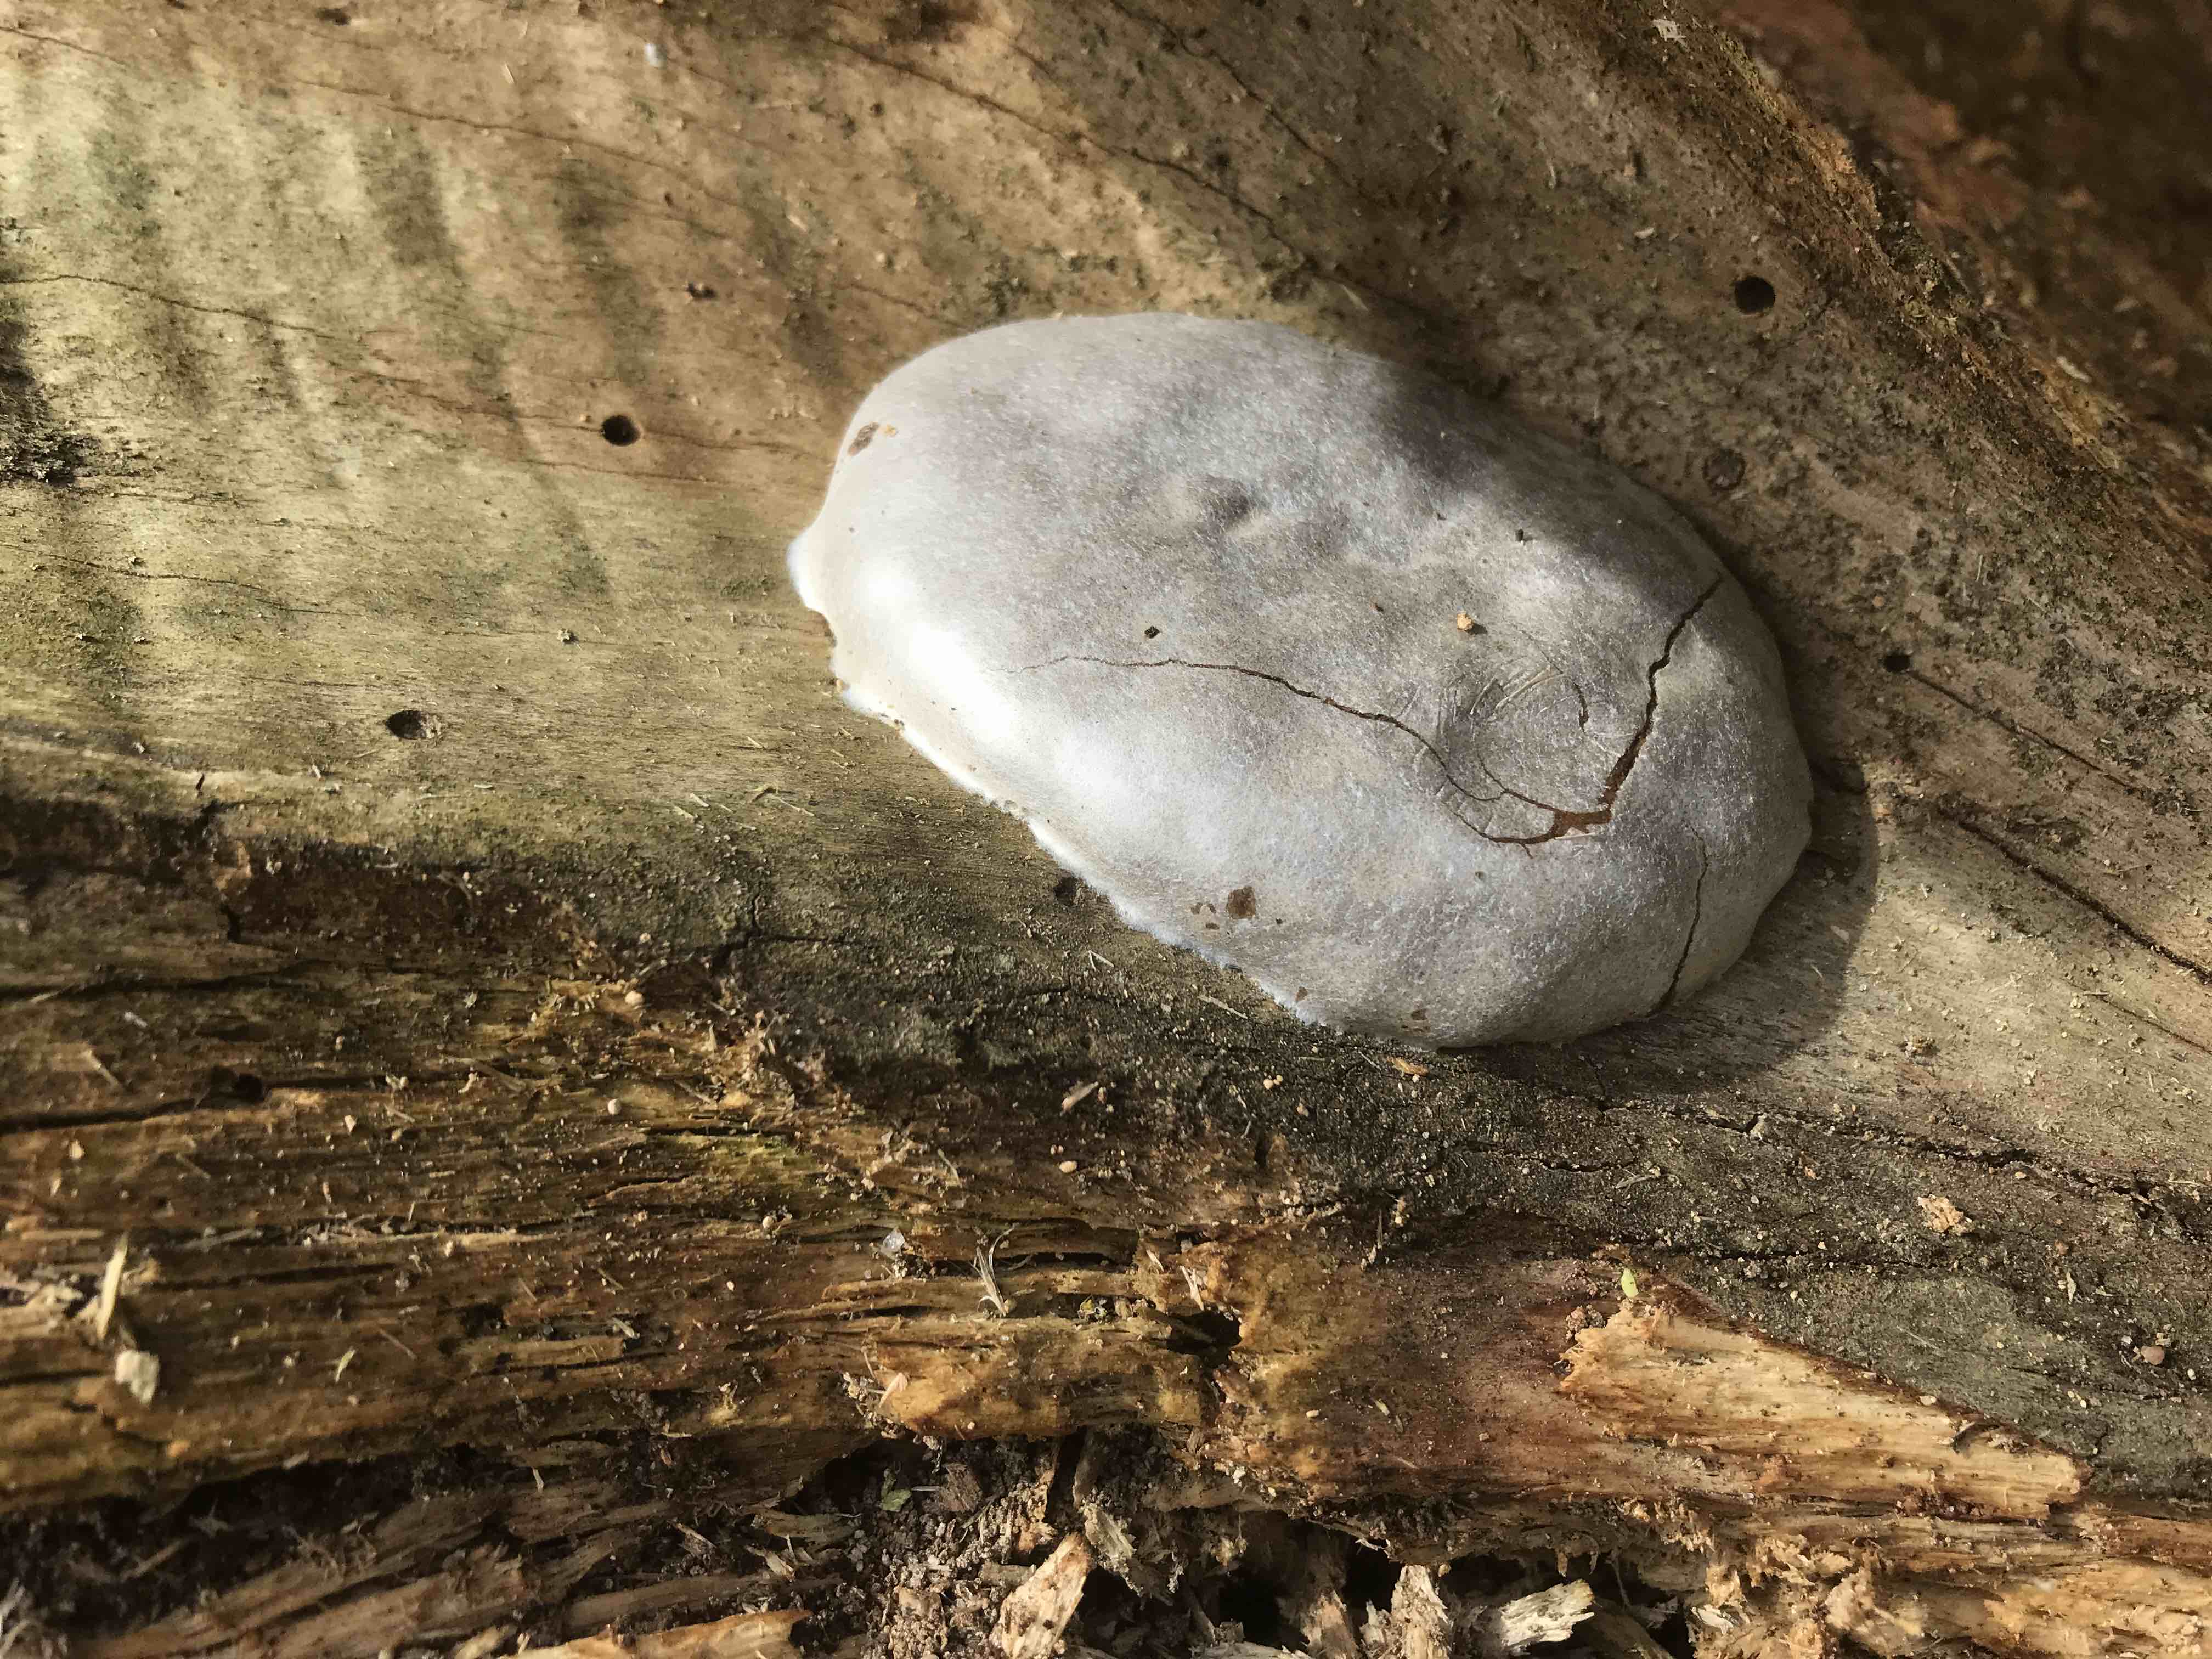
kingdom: Protozoa
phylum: Mycetozoa
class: Myxomycetes
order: Cribrariales
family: Tubiferaceae
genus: Reticularia
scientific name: Reticularia lycoperdon
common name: skinnende støvpude
